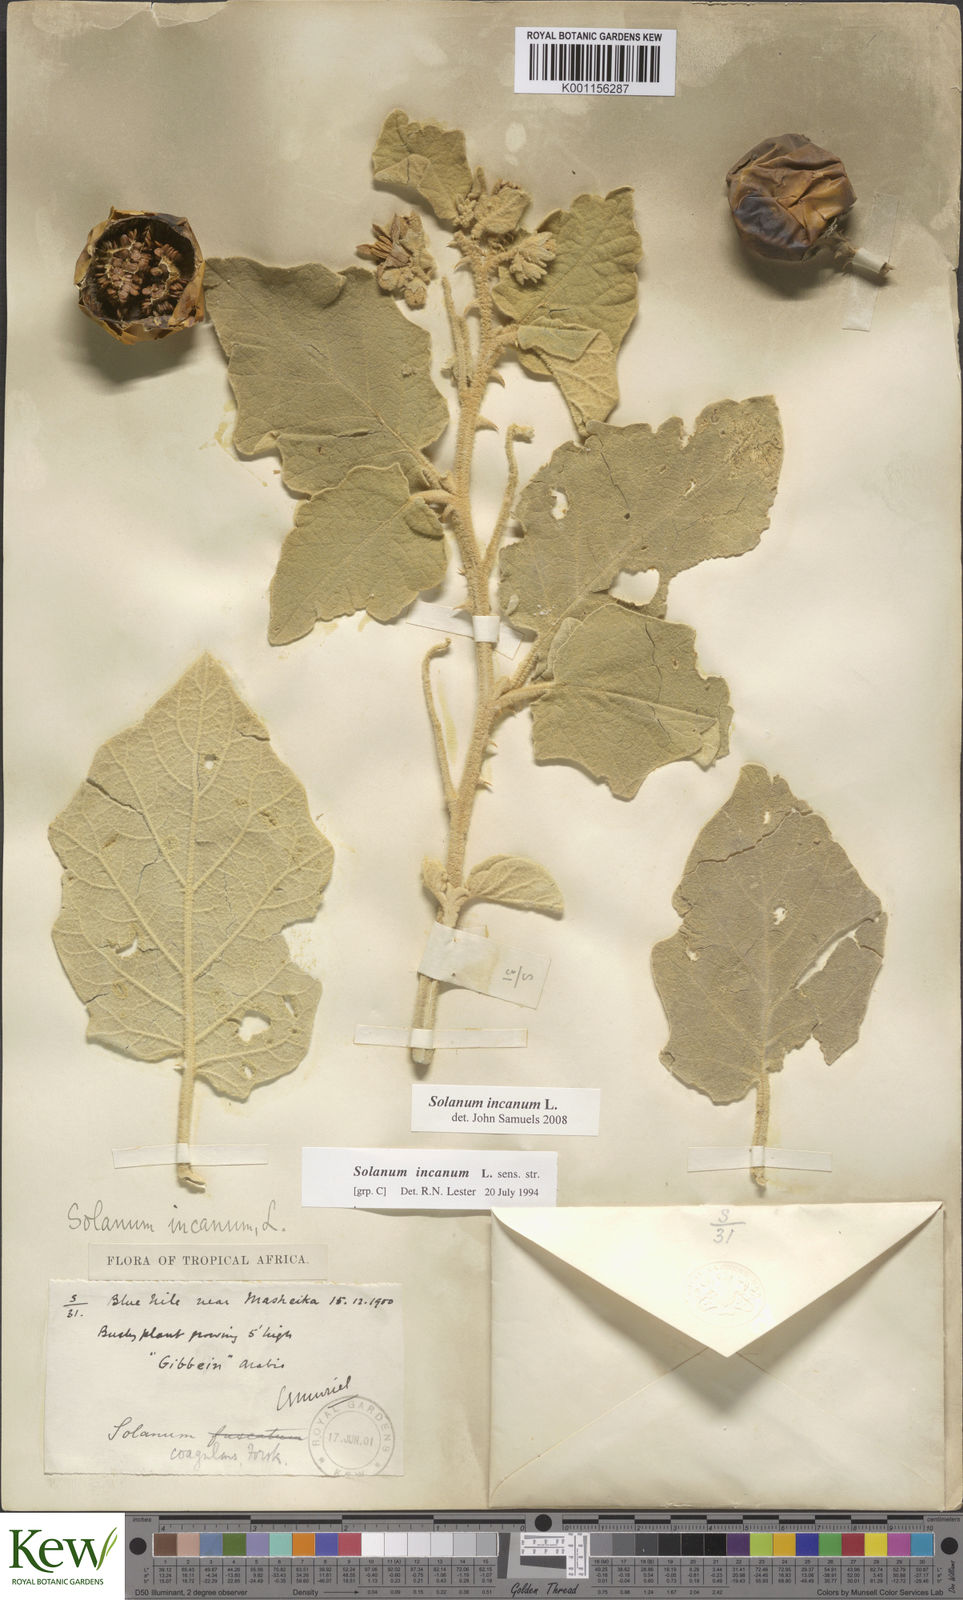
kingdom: Plantae
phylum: Tracheophyta
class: Magnoliopsida
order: Solanales
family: Solanaceae
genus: Solanum
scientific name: Solanum incanum
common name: Bitter apple
